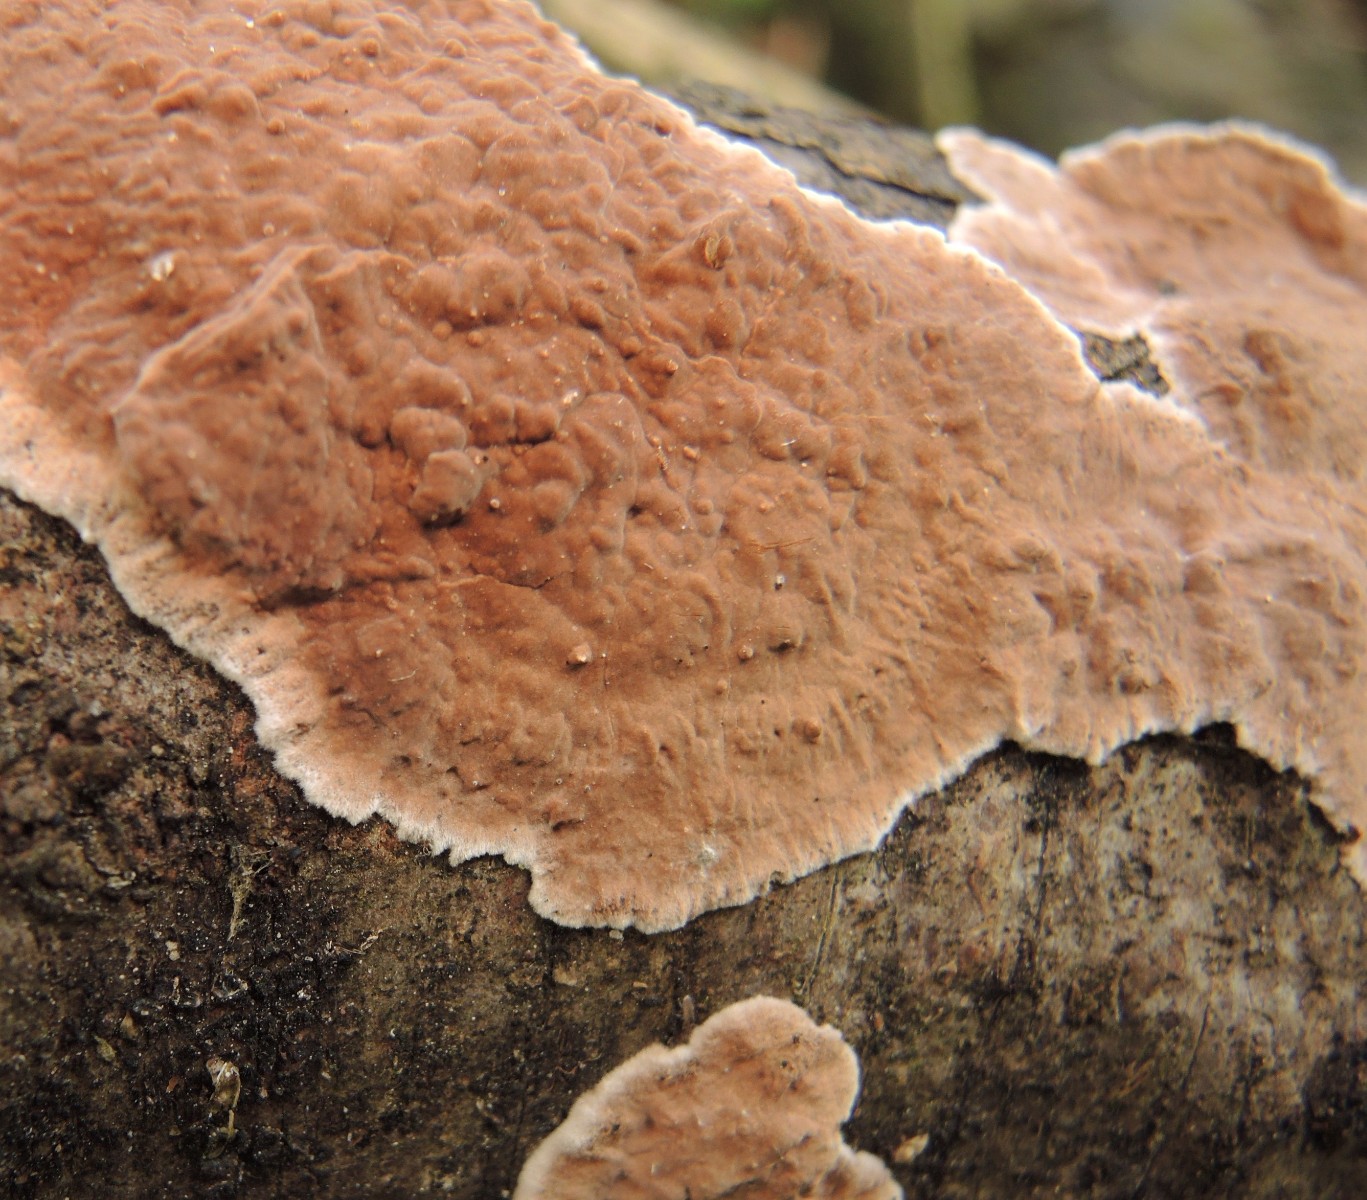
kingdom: Fungi
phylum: Basidiomycota
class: Agaricomycetes
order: Russulales
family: Echinodontiaceae
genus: Amylostereum
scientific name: Amylostereum chailletii
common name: gran-lædersvamp
